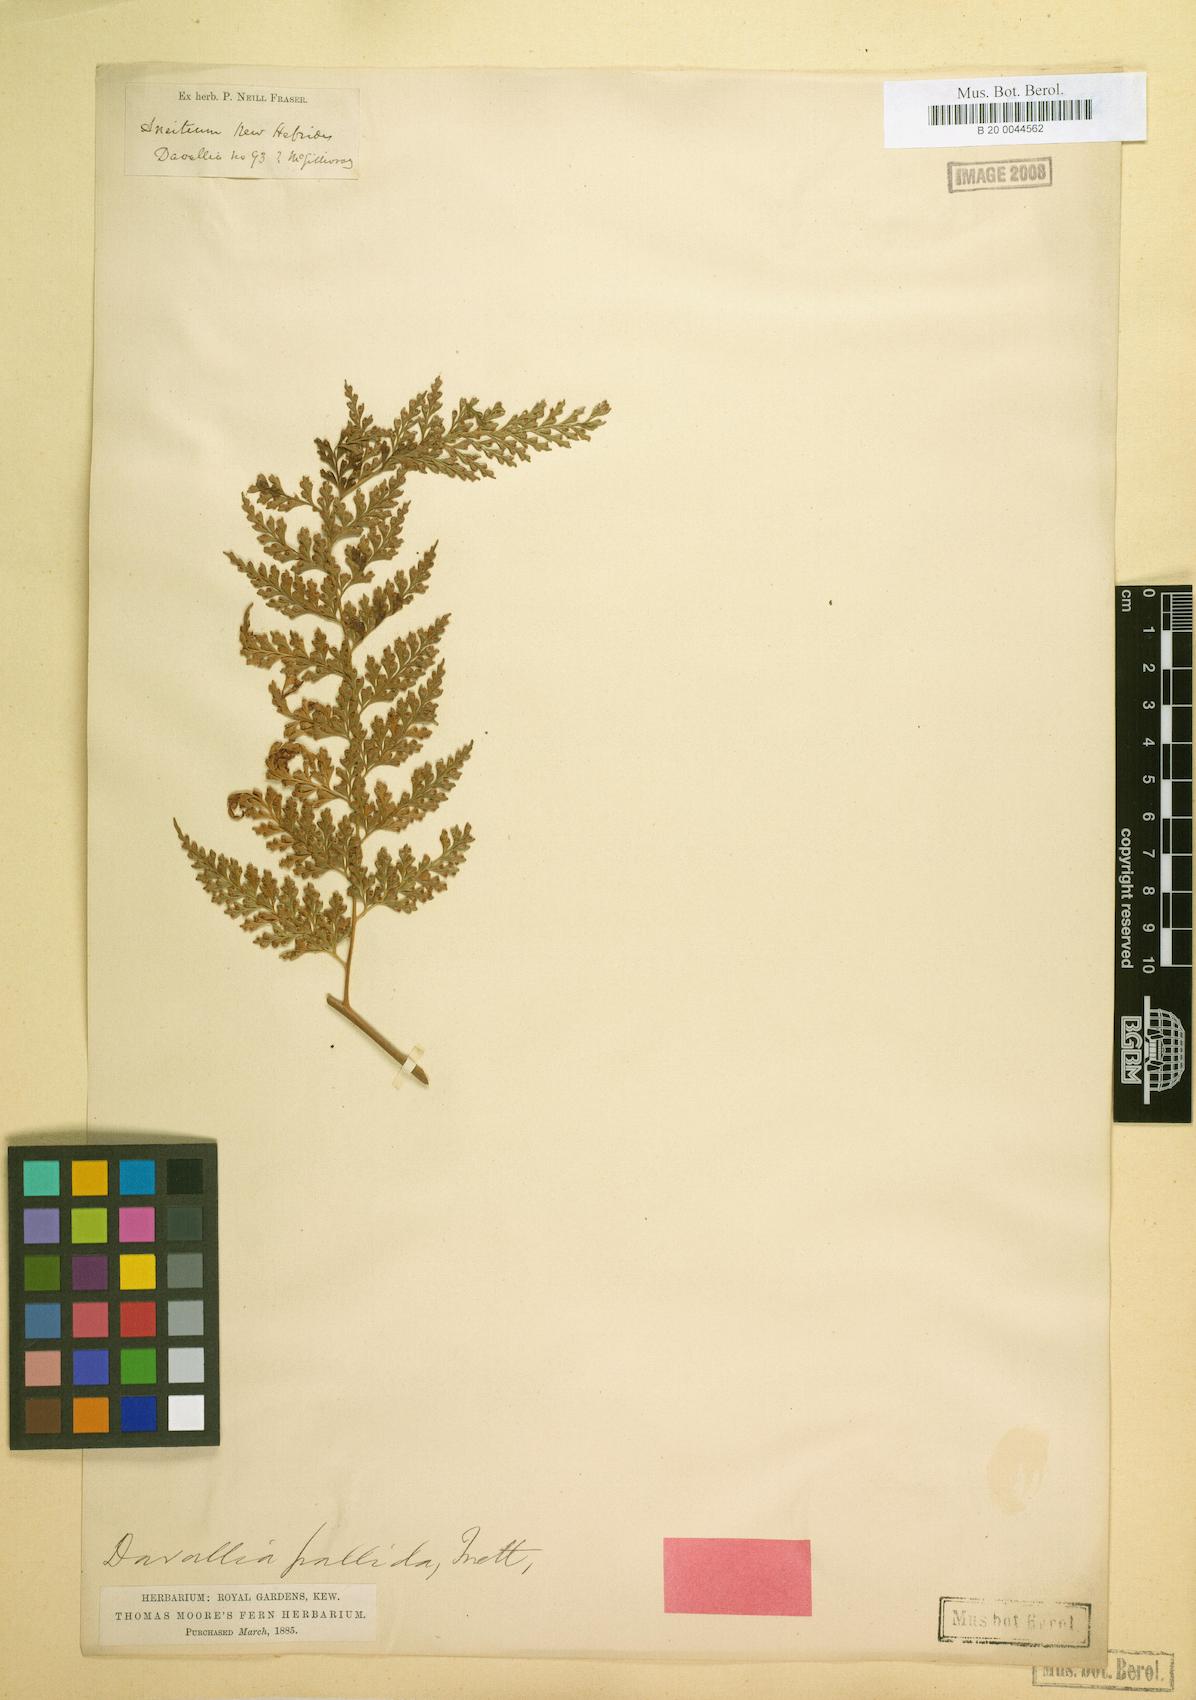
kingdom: Plantae
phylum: Tracheophyta
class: Polypodiopsida
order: Polypodiales
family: Hypodematiaceae
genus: Leucostegia
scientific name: Leucostegia pallida
